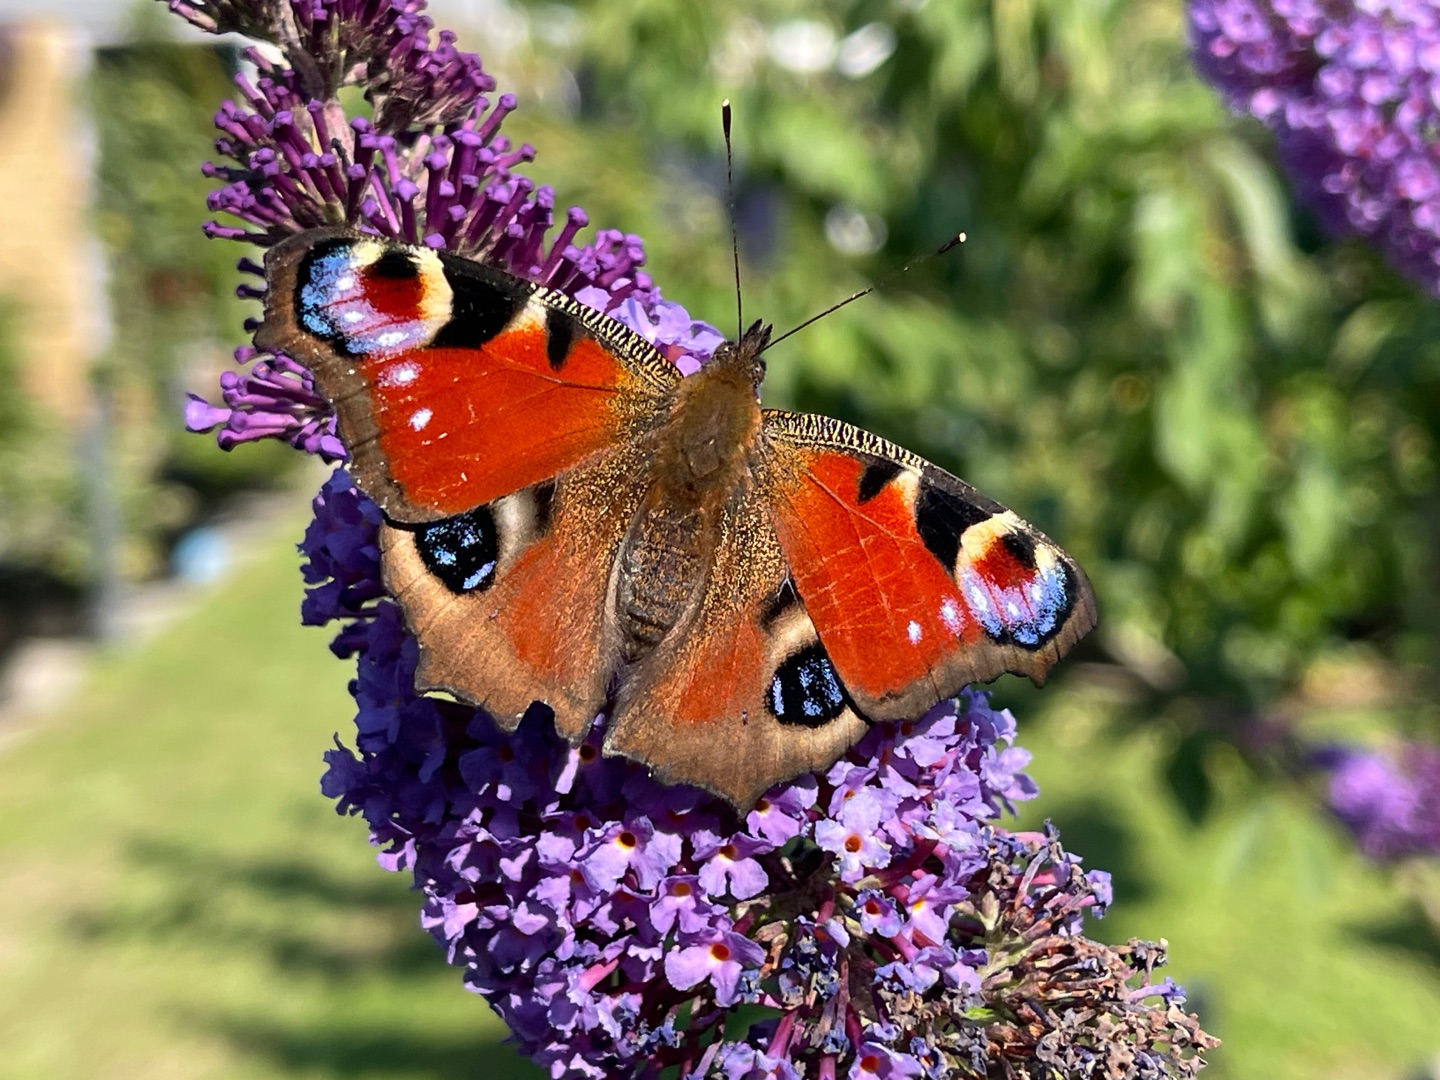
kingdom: Animalia
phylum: Arthropoda
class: Insecta
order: Lepidoptera
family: Nymphalidae
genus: Aglais
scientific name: Aglais io
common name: Dagpåfugleøje
